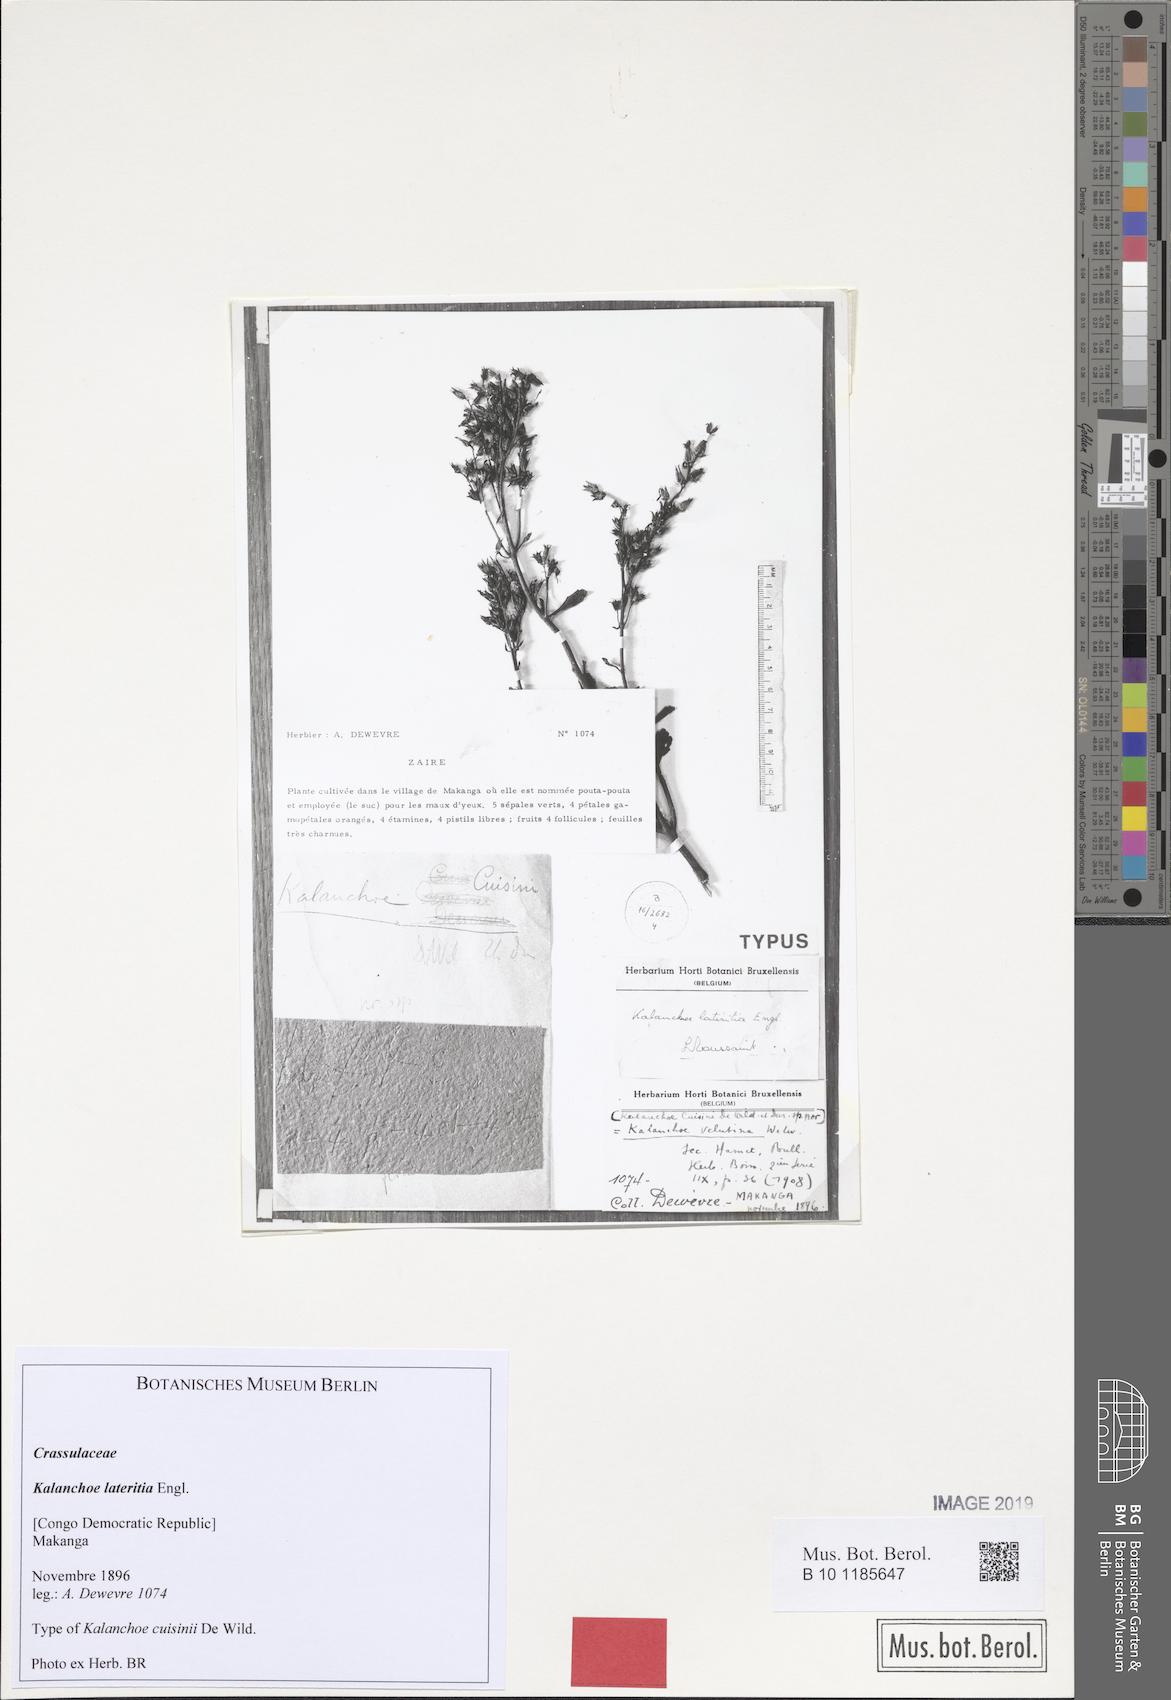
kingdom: Plantae
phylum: Tracheophyta
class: Magnoliopsida
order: Saxifragales
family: Crassulaceae
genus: Kalanchoe
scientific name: Kalanchoe lateritia
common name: Kalanchoe
